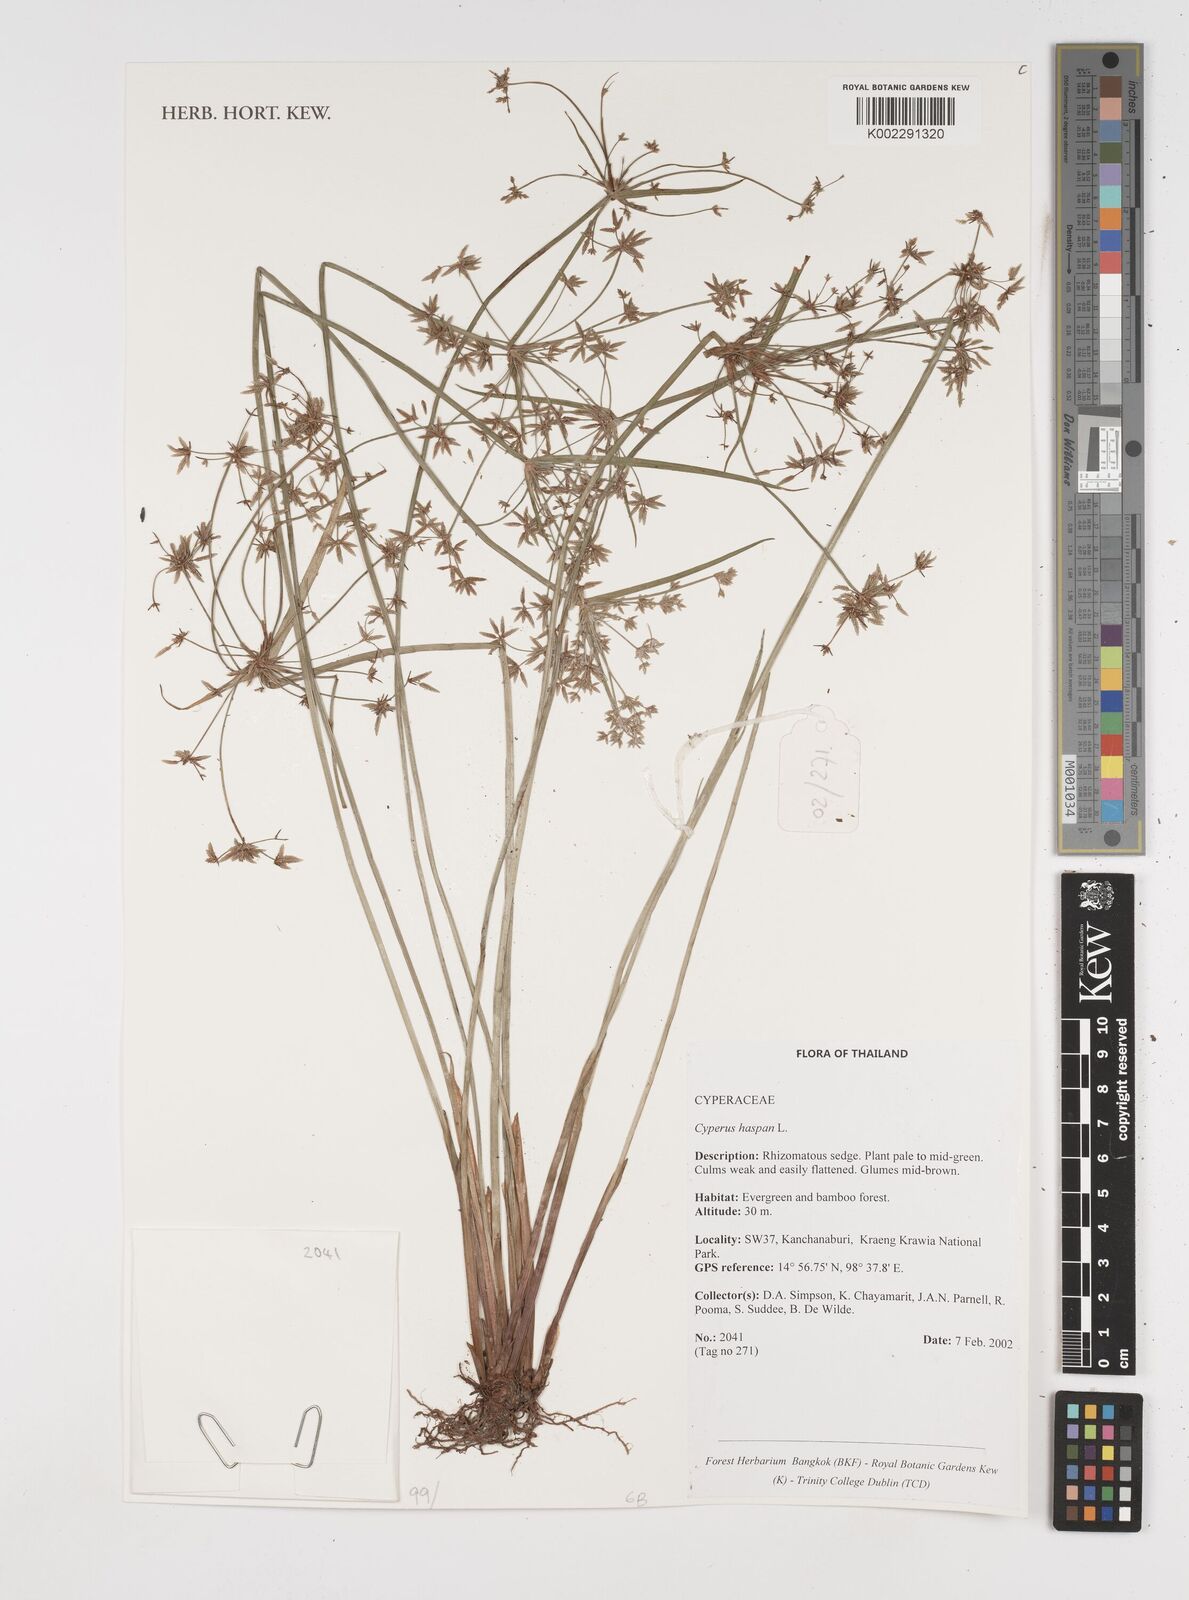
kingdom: Plantae
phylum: Tracheophyta
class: Liliopsida
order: Poales
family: Cyperaceae
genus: Cyperus
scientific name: Cyperus haspan
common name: Haspan flatsedge
